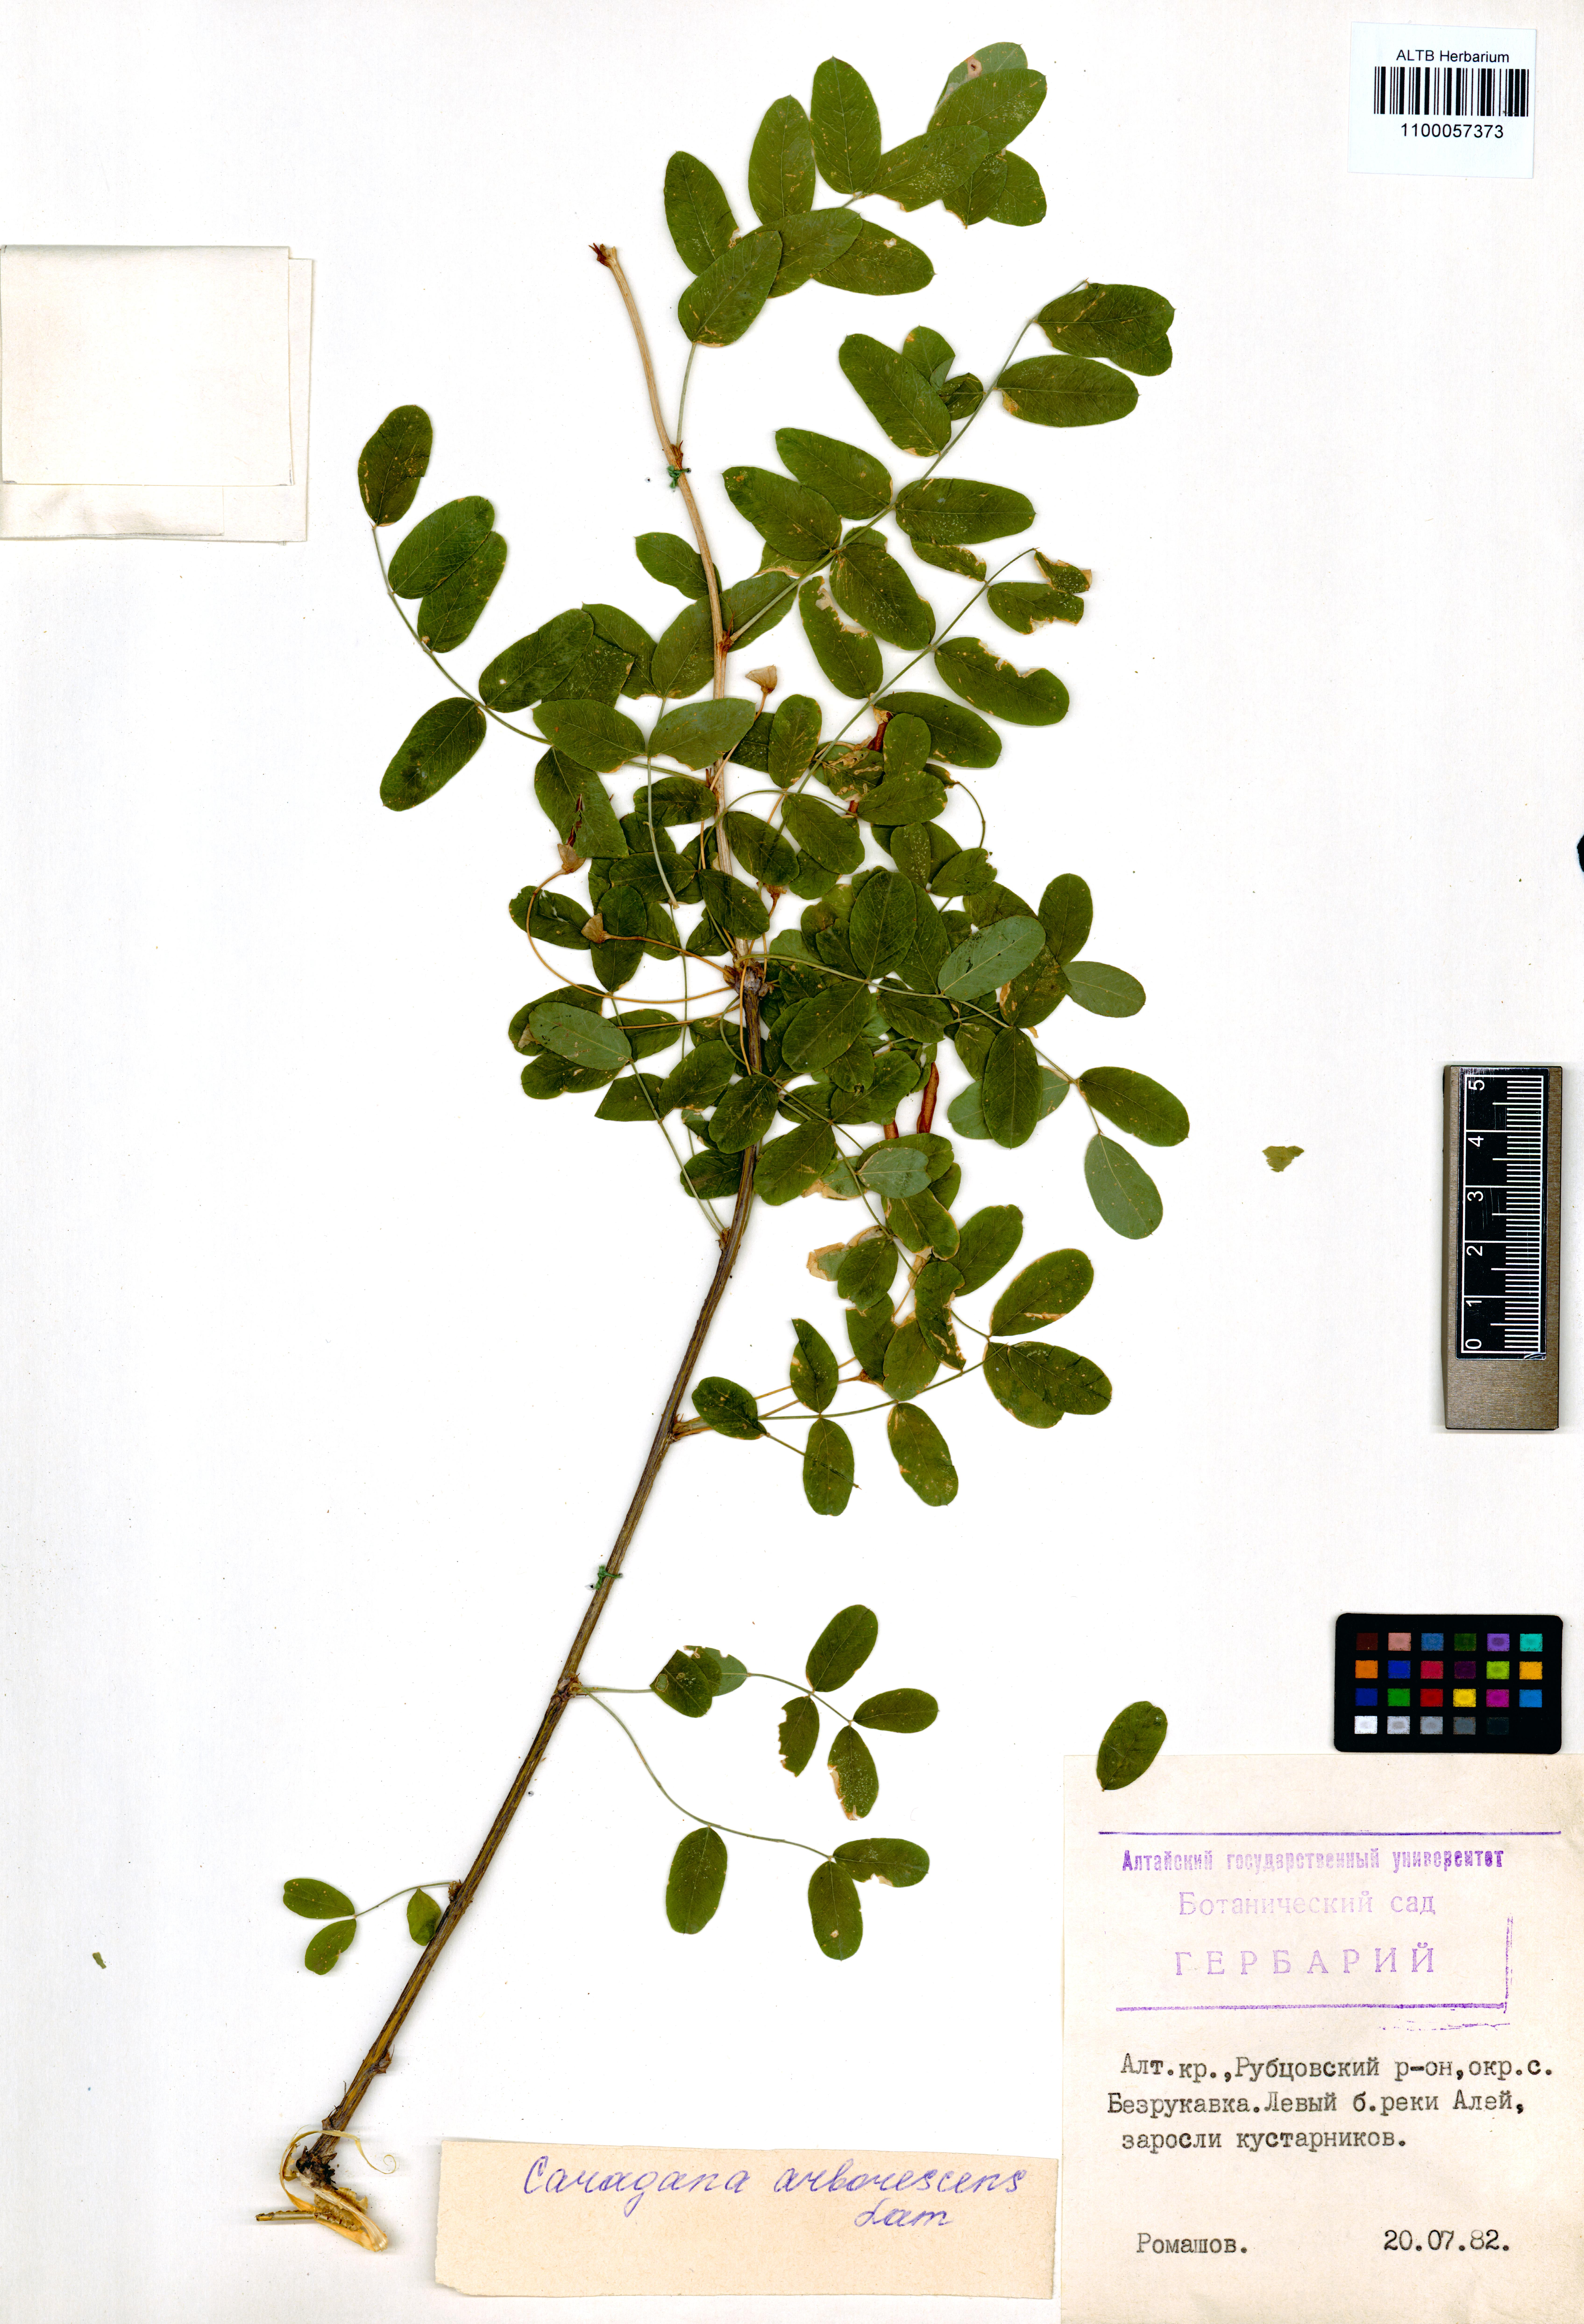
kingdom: Plantae
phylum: Tracheophyta
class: Magnoliopsida
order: Fabales
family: Fabaceae
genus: Caragana
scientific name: Caragana arborescens
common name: Siberian peashrub
